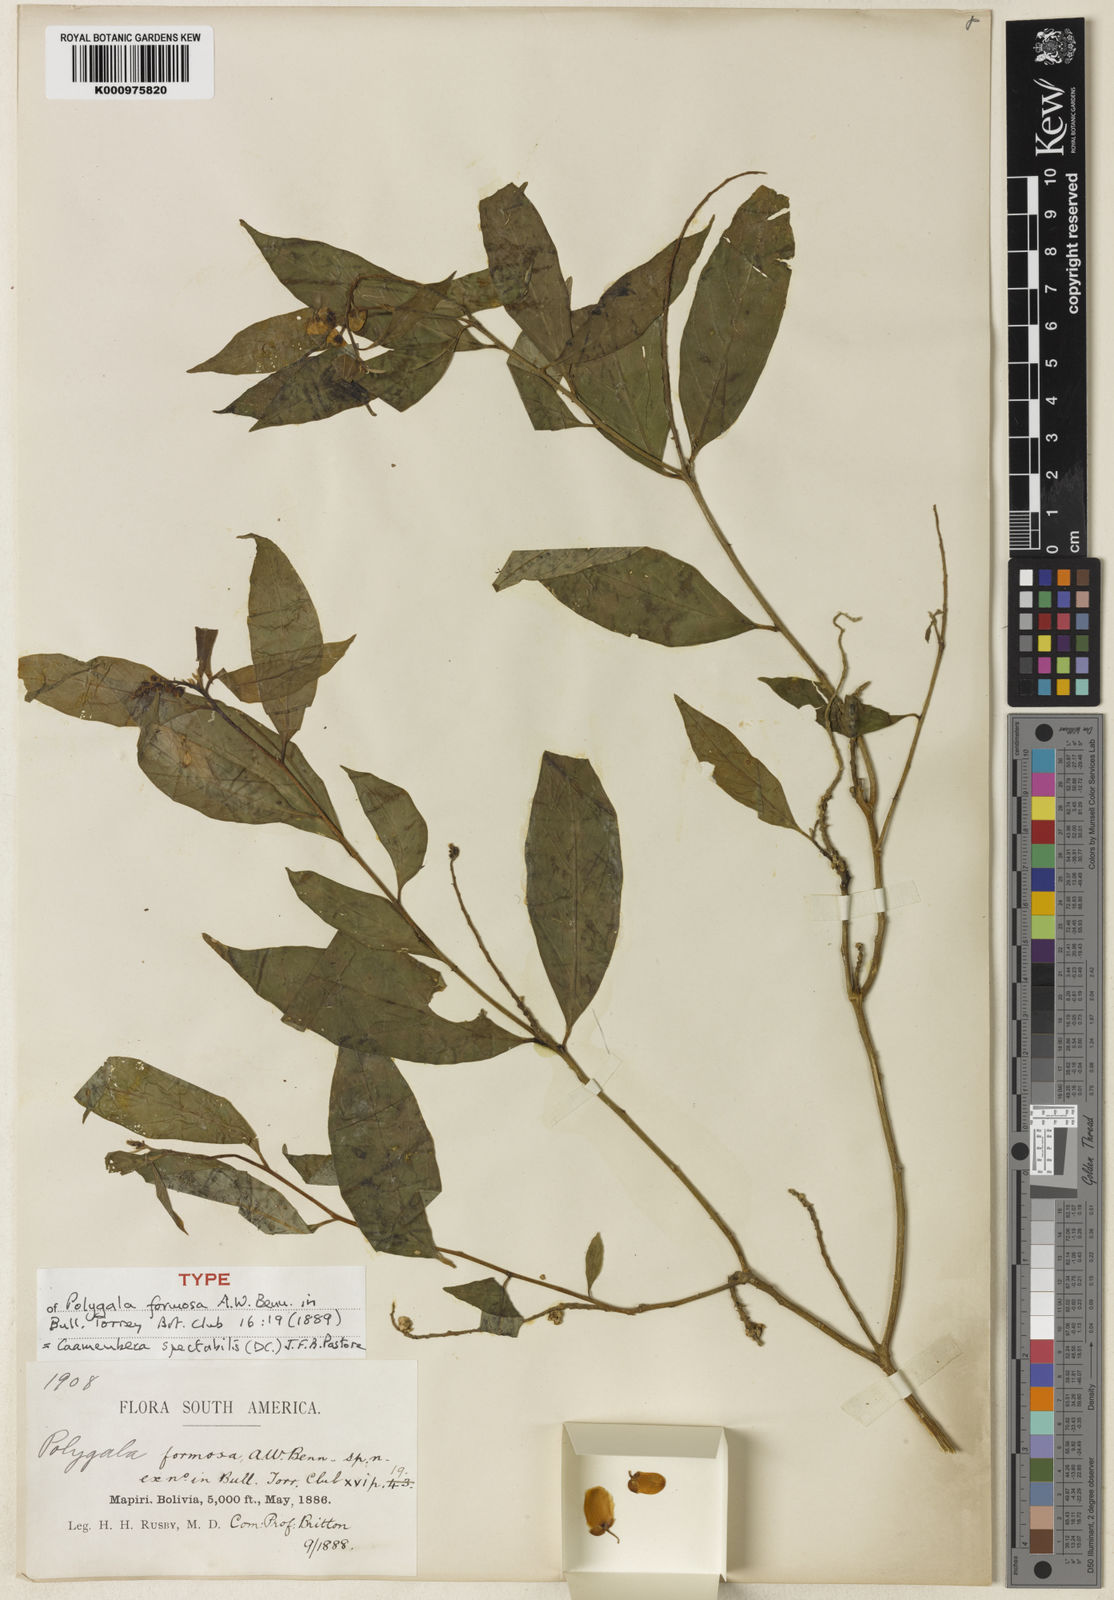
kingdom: Plantae
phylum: Tracheophyta
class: Magnoliopsida
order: Fabales
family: Polygalaceae
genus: Caamembeca
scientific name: Caamembeca spectabilis
